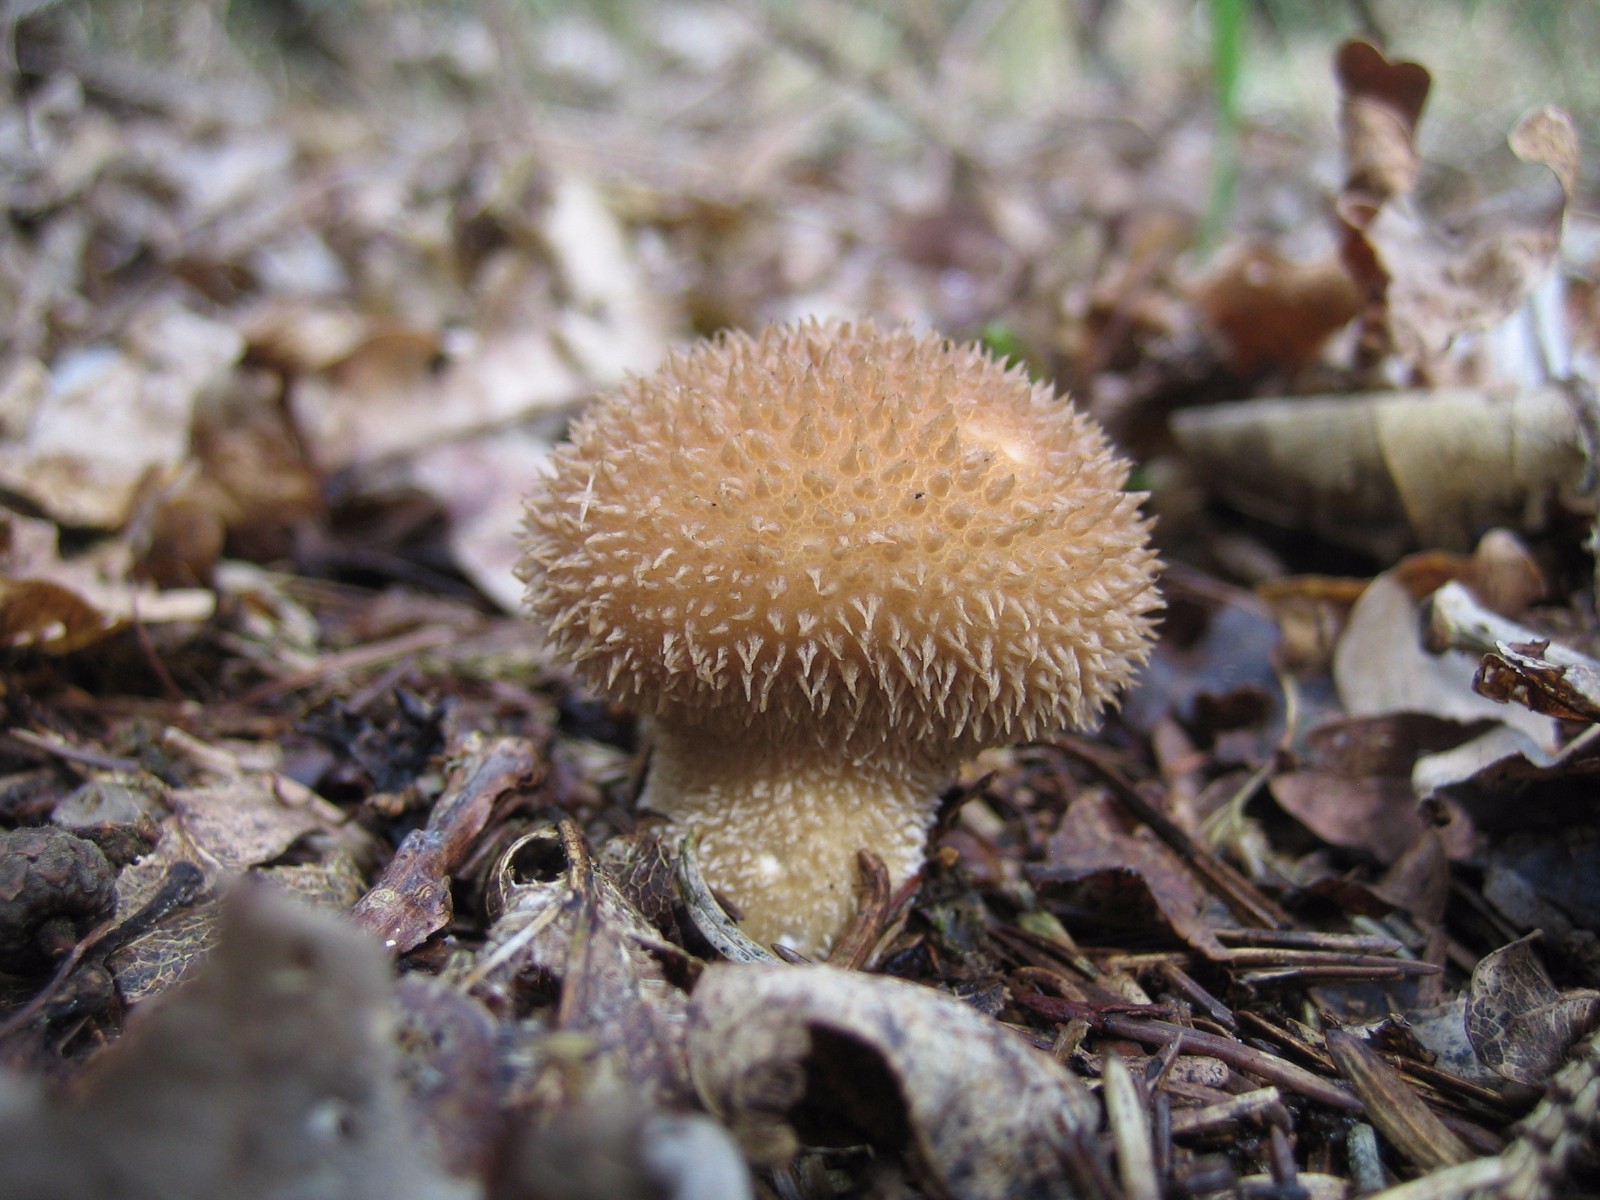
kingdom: Fungi
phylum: Basidiomycota
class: Agaricomycetes
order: Agaricales
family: Lycoperdaceae
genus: Lycoperdon
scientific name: Lycoperdon echinatum
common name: pindsvine-støvbold
